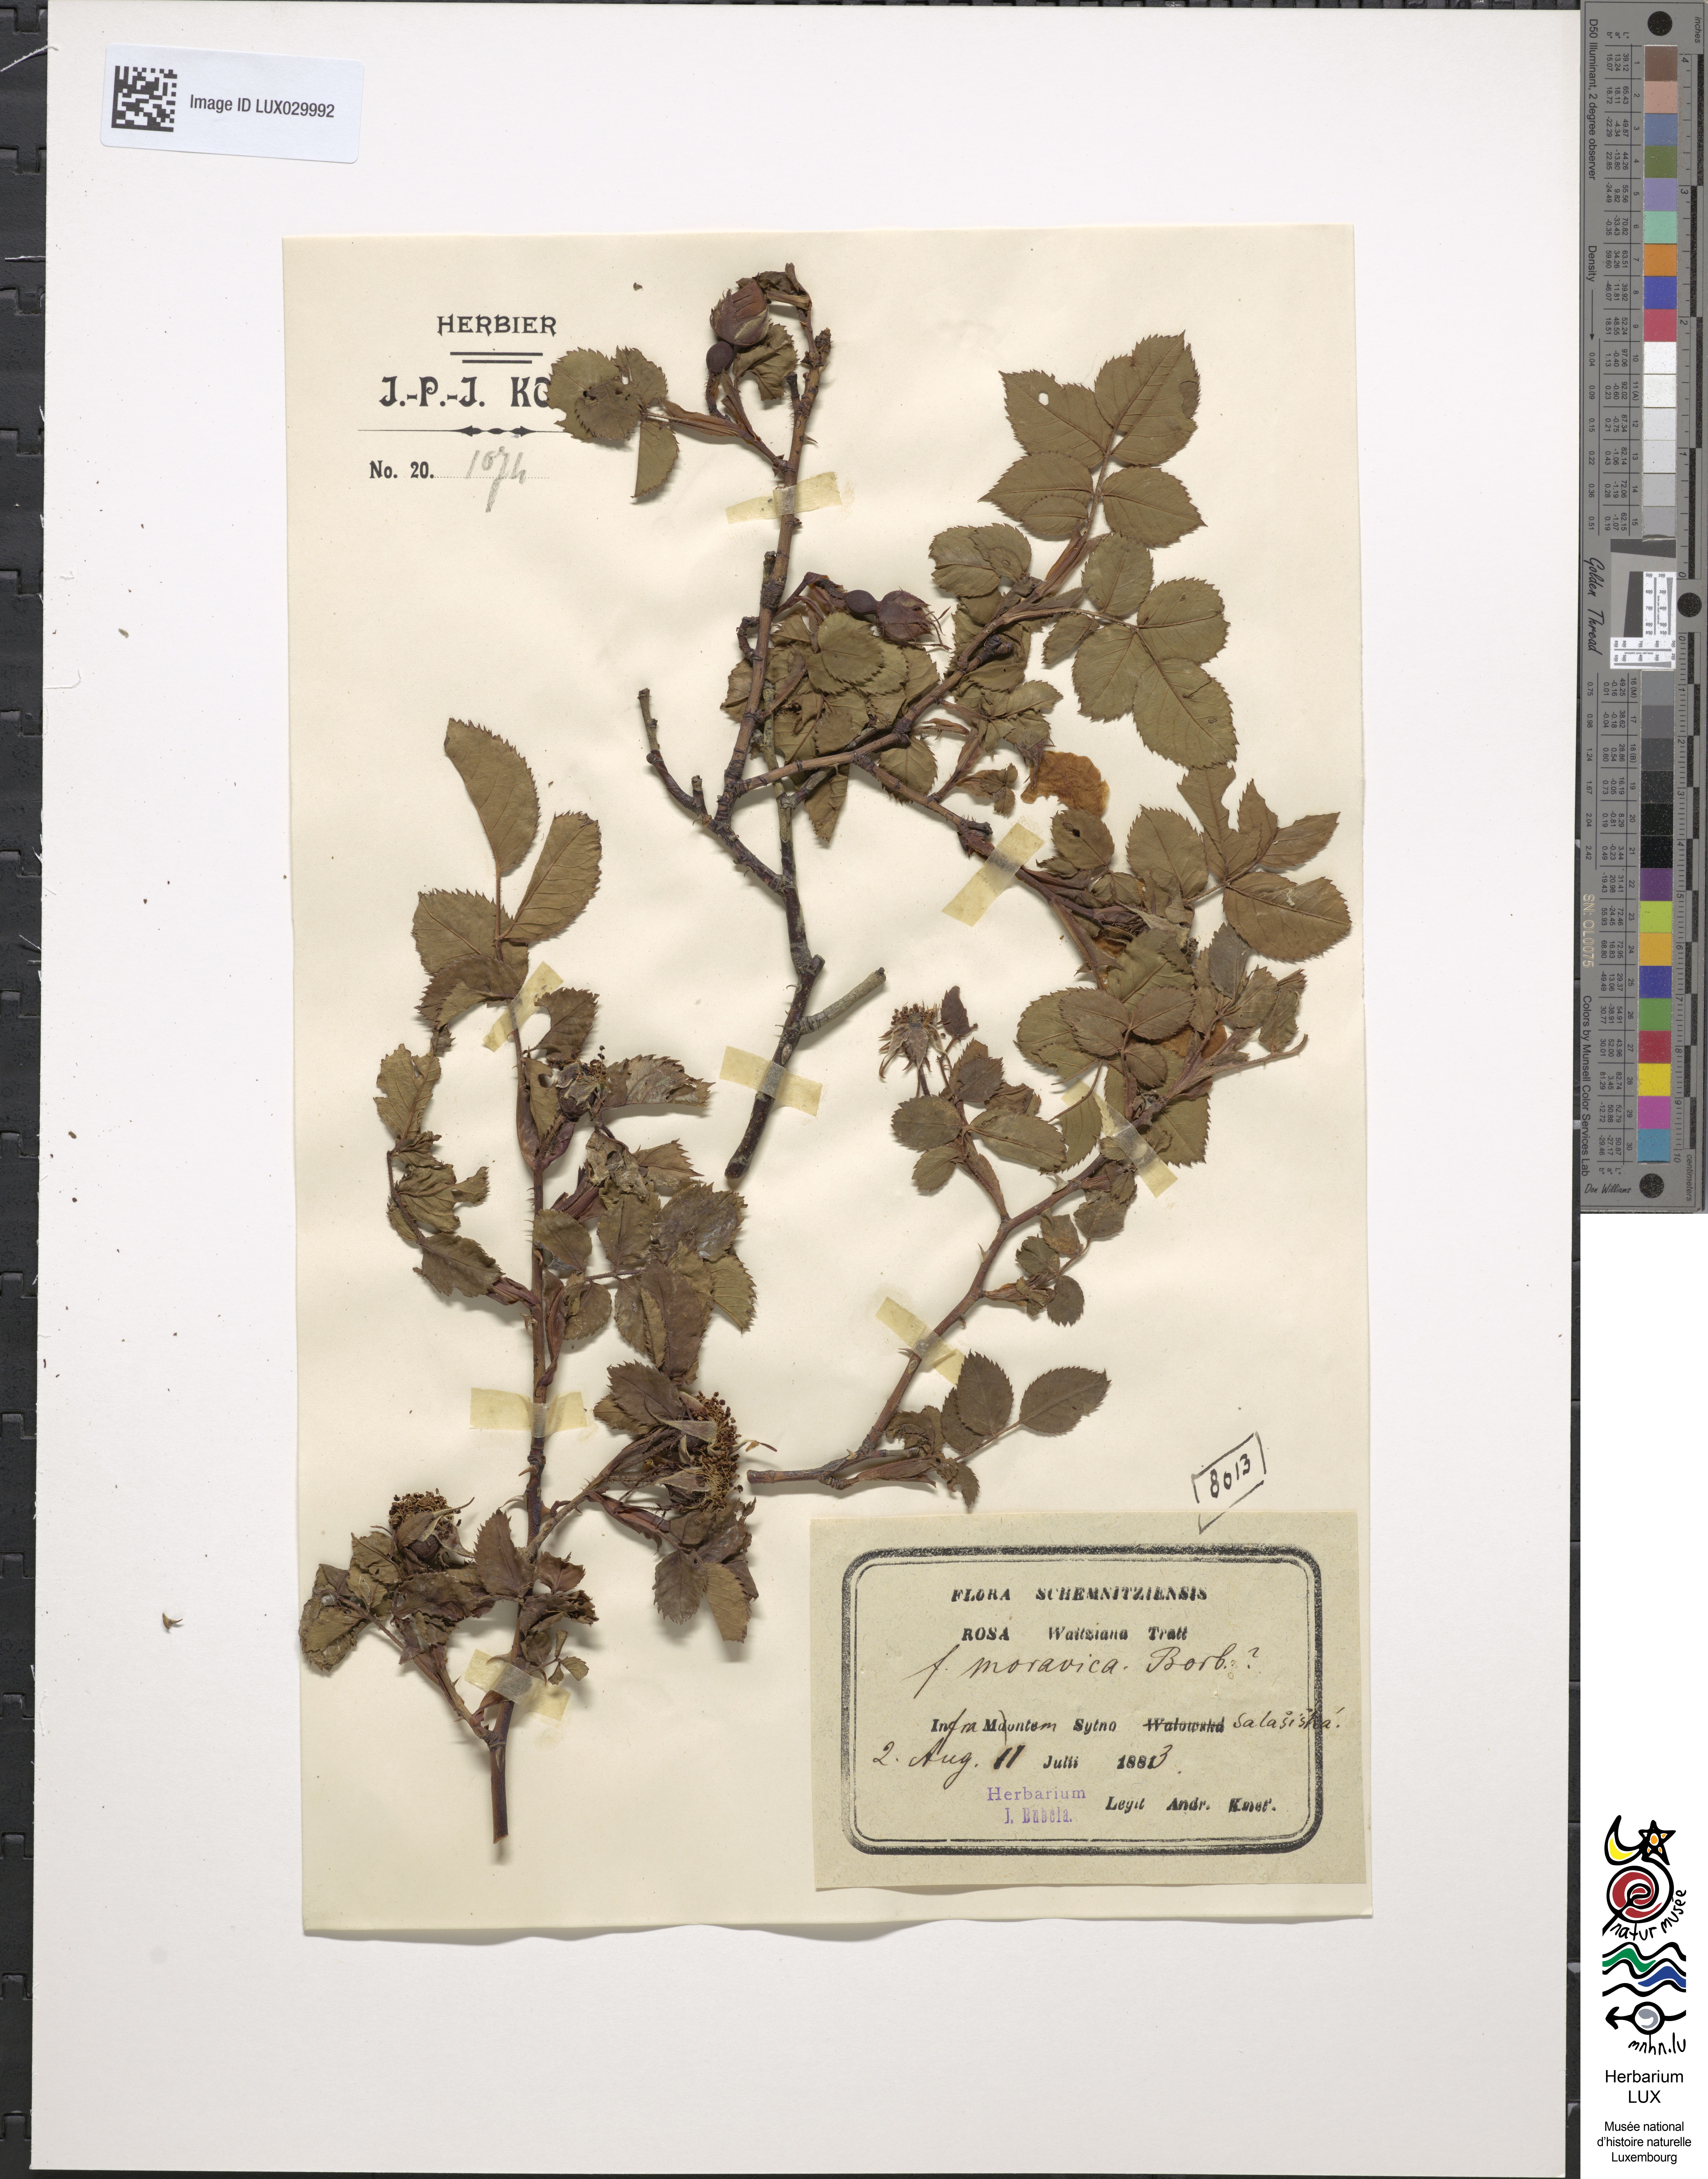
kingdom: Plantae
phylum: Tracheophyta
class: Magnoliopsida
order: Rosales
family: Rosaceae
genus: Rosa
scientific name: Rosa kosinsciana
